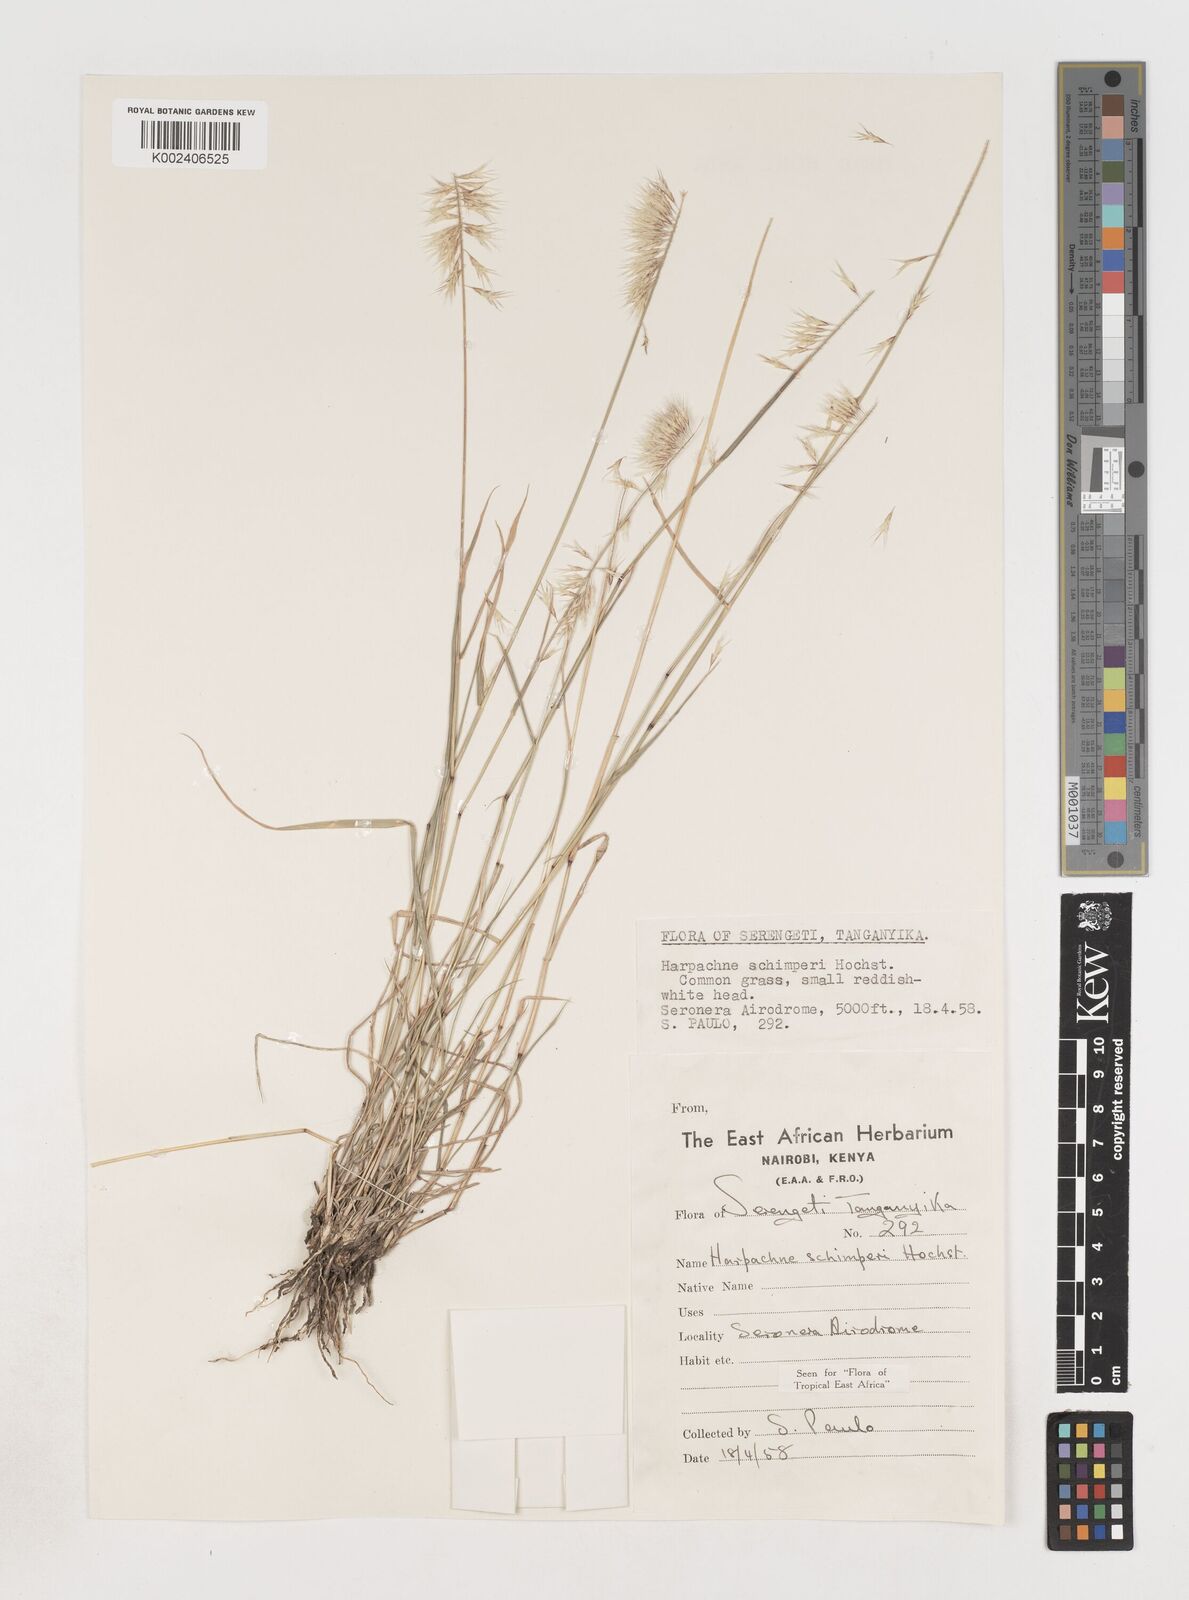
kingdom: Plantae
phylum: Tracheophyta
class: Liliopsida
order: Poales
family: Poaceae
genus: Harpachne
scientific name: Harpachne schimperi
